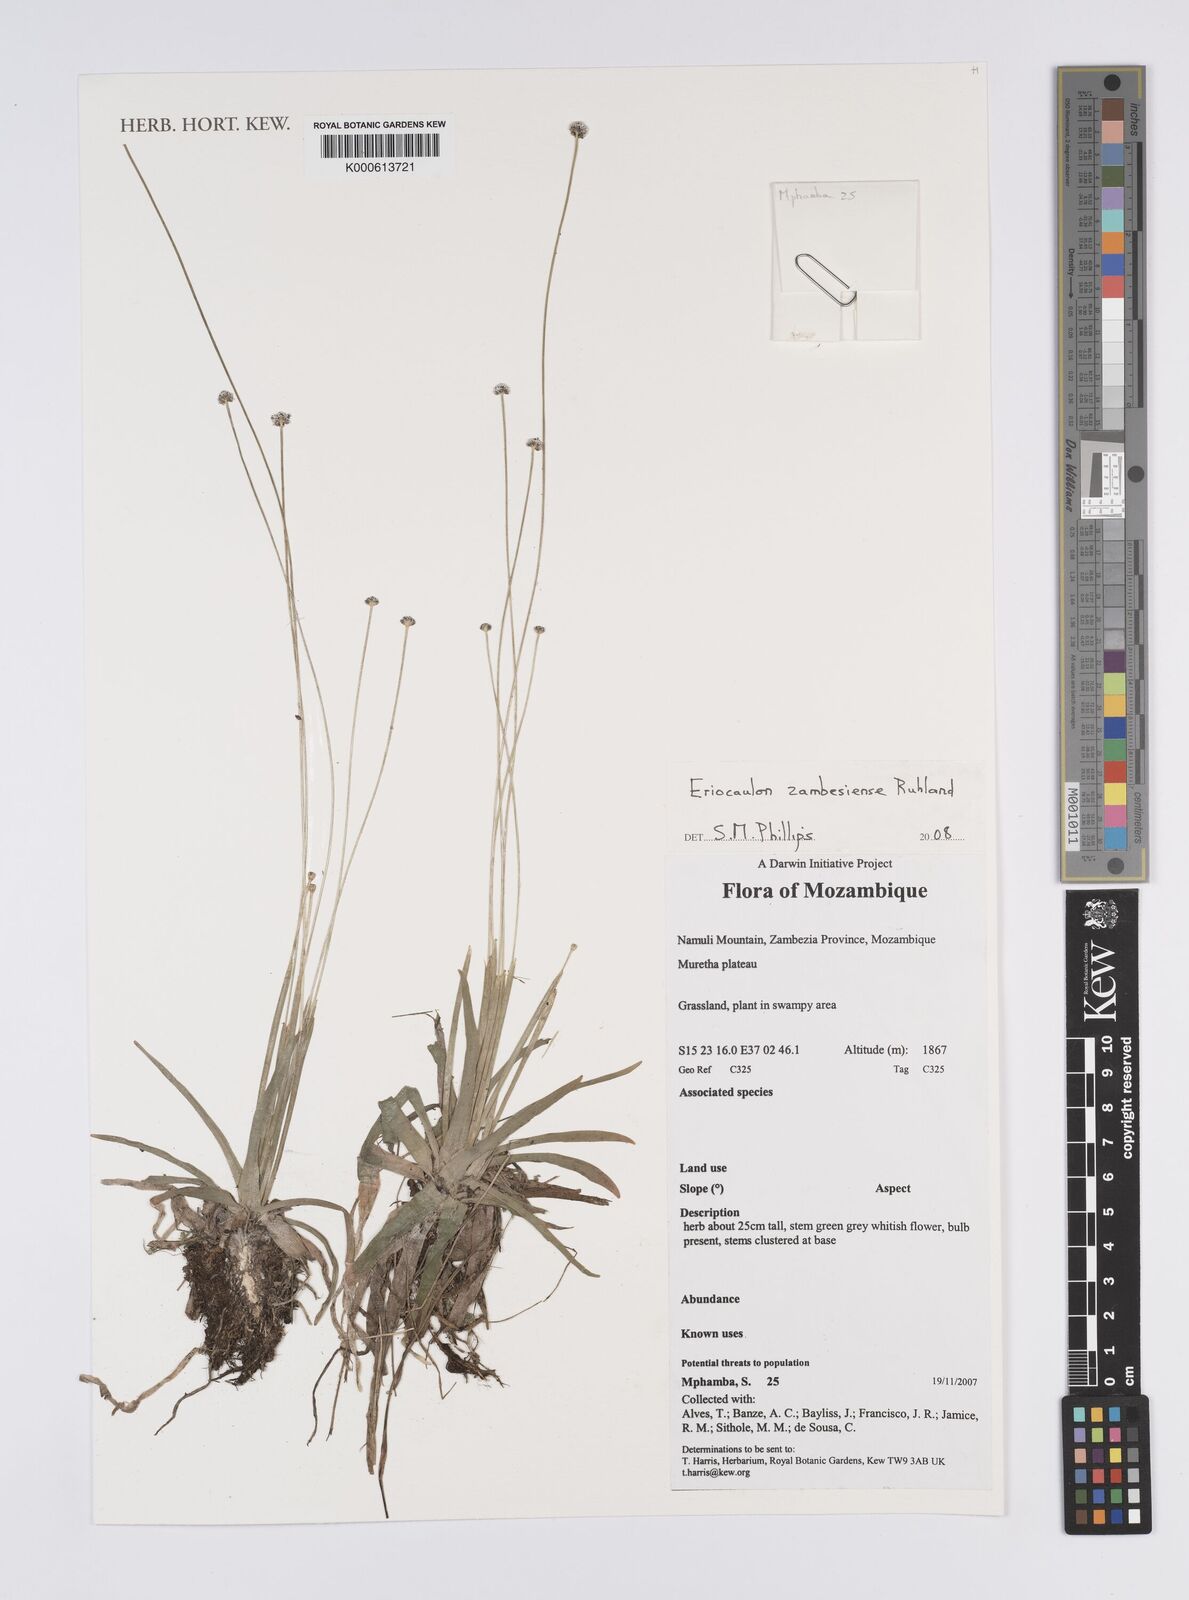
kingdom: Plantae
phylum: Tracheophyta
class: Liliopsida
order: Poales
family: Eriocaulaceae
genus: Eriocaulon
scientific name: Eriocaulon zambesiense
